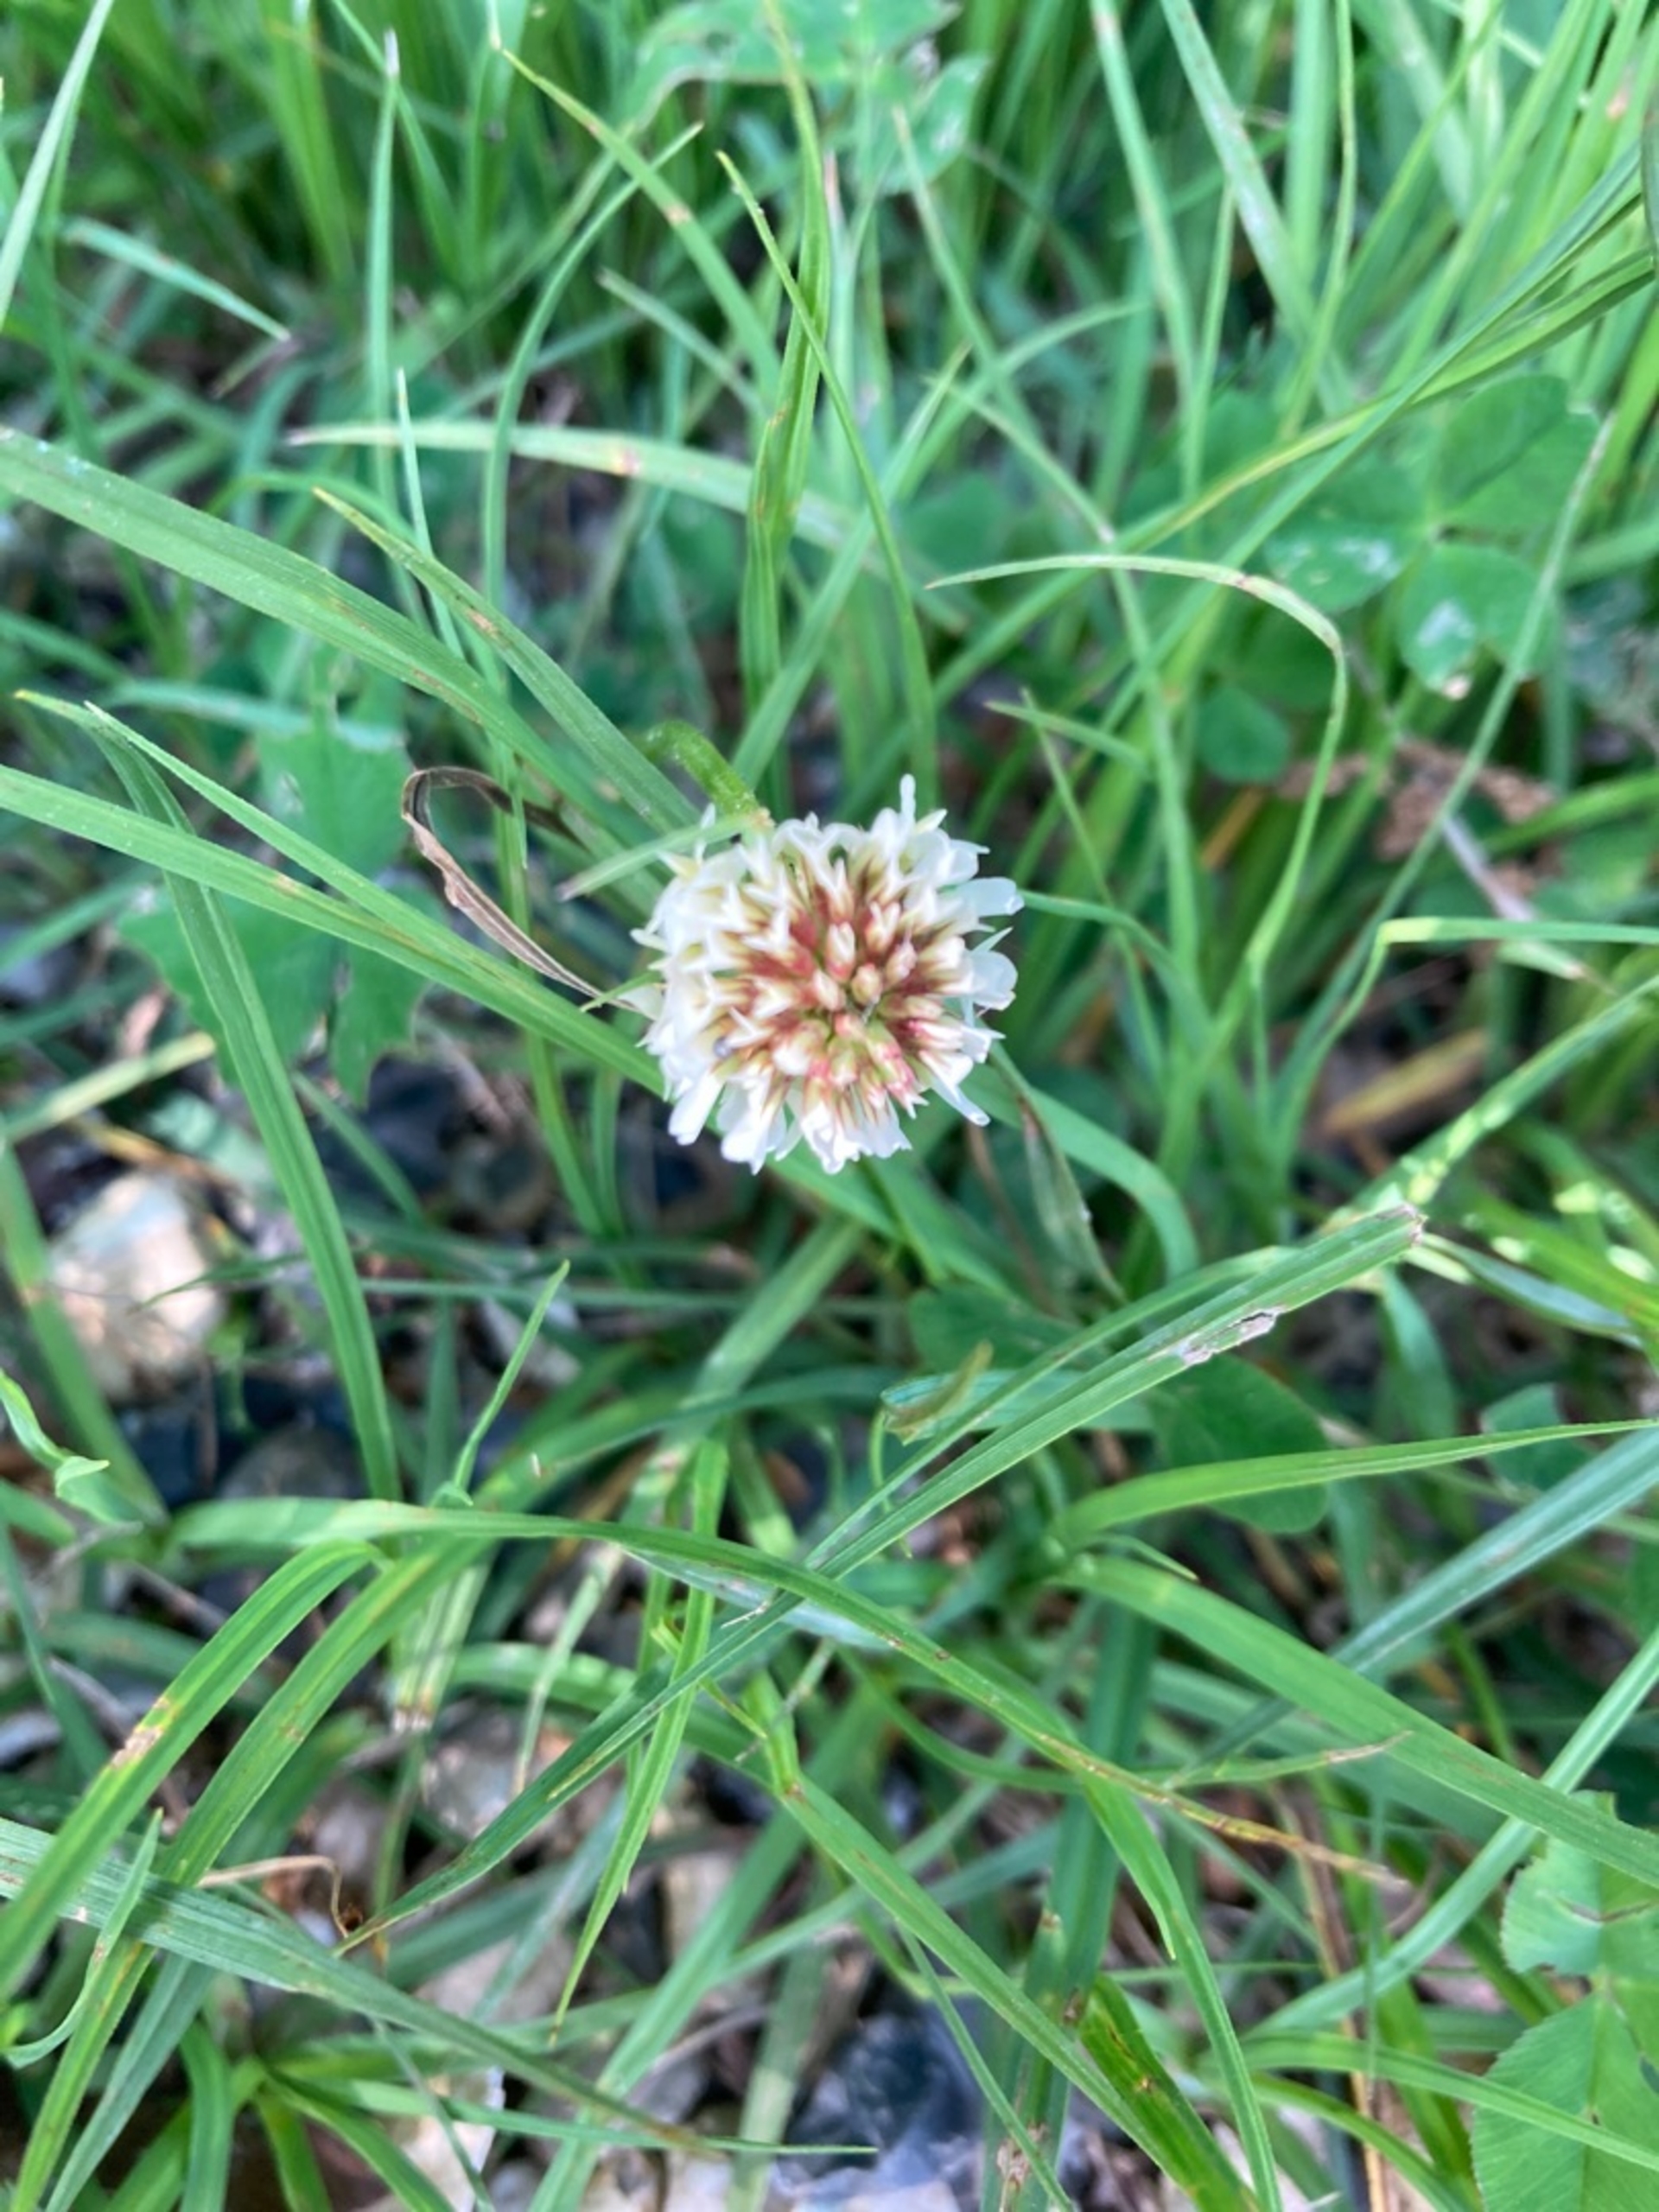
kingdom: Plantae
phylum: Tracheophyta
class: Magnoliopsida
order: Fabales
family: Fabaceae
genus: Trifolium
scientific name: Trifolium repens
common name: Hvid-kløver
